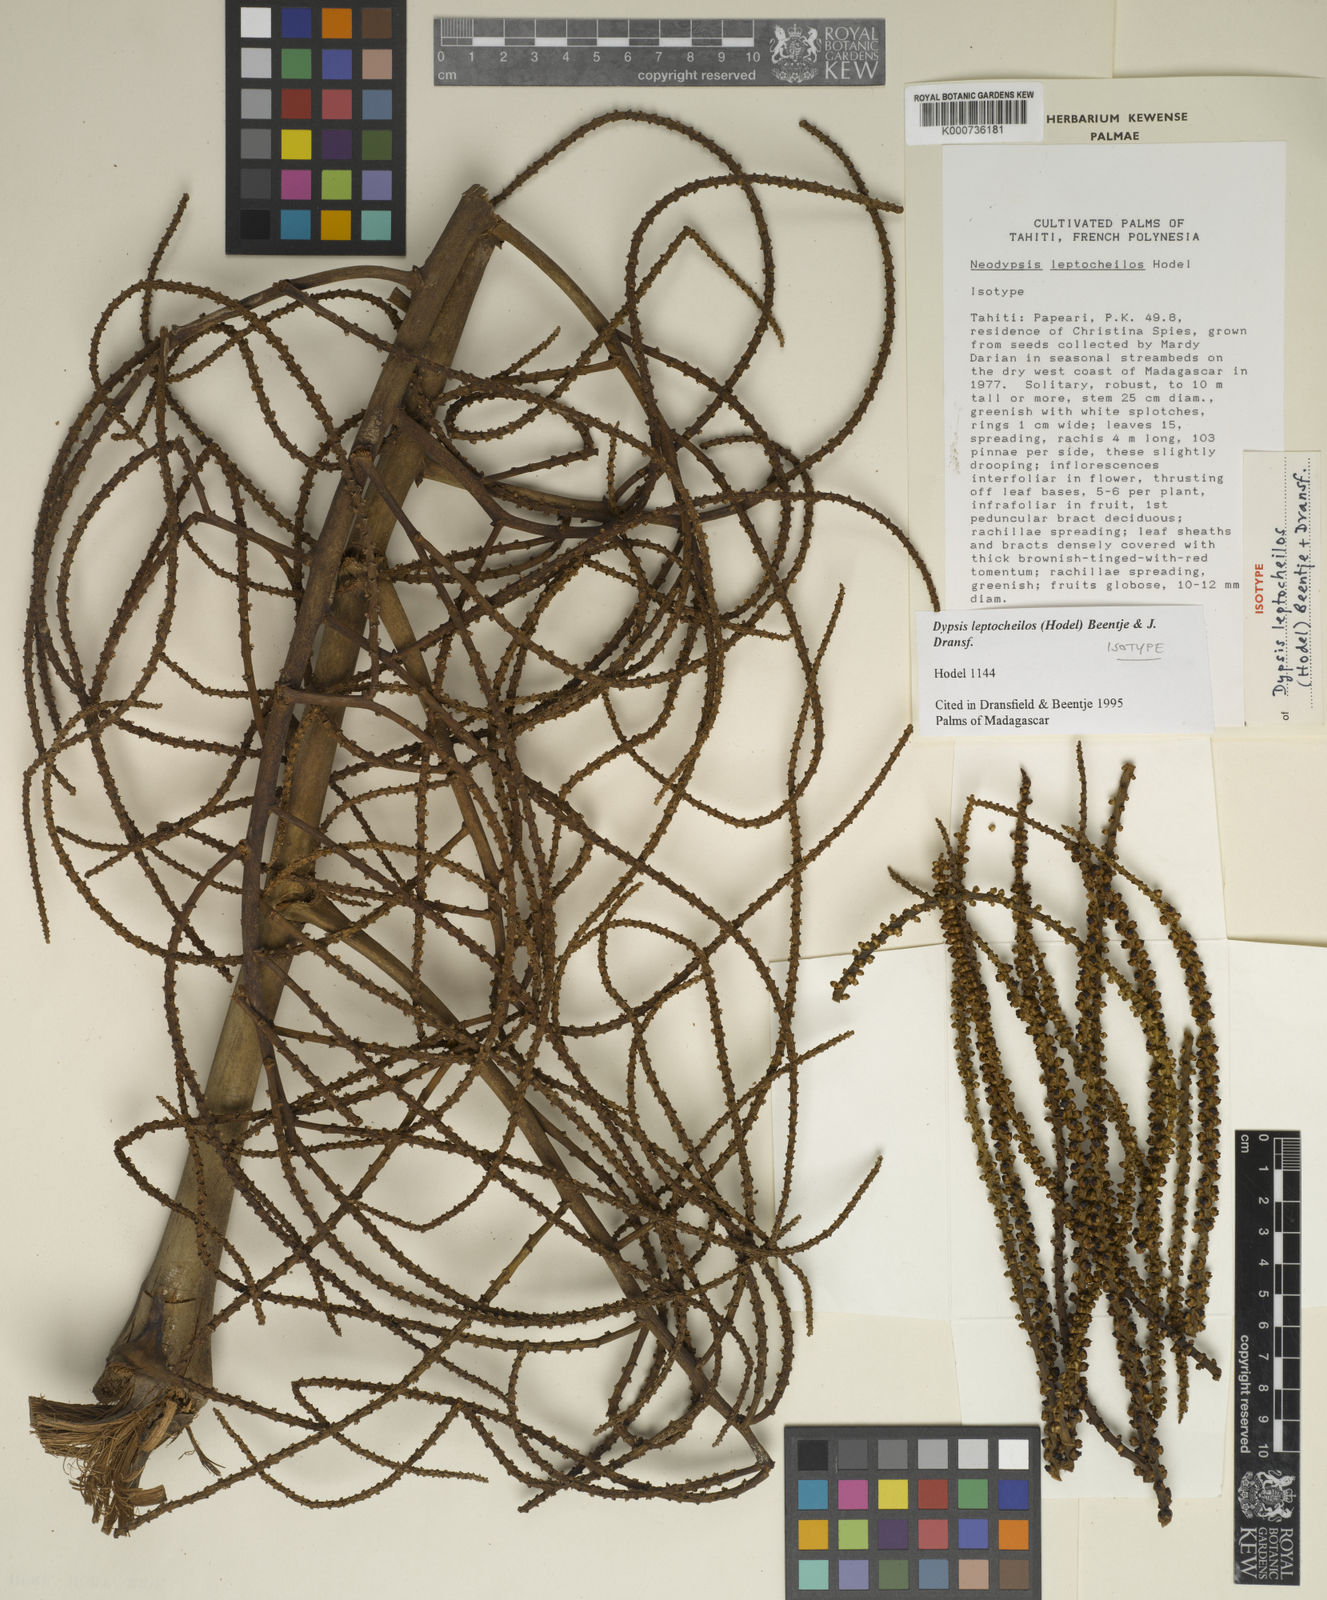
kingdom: Plantae
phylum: Tracheophyta
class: Liliopsida
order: Arecales
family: Arecaceae
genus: Dypsis
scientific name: Dypsis leptocheilos
